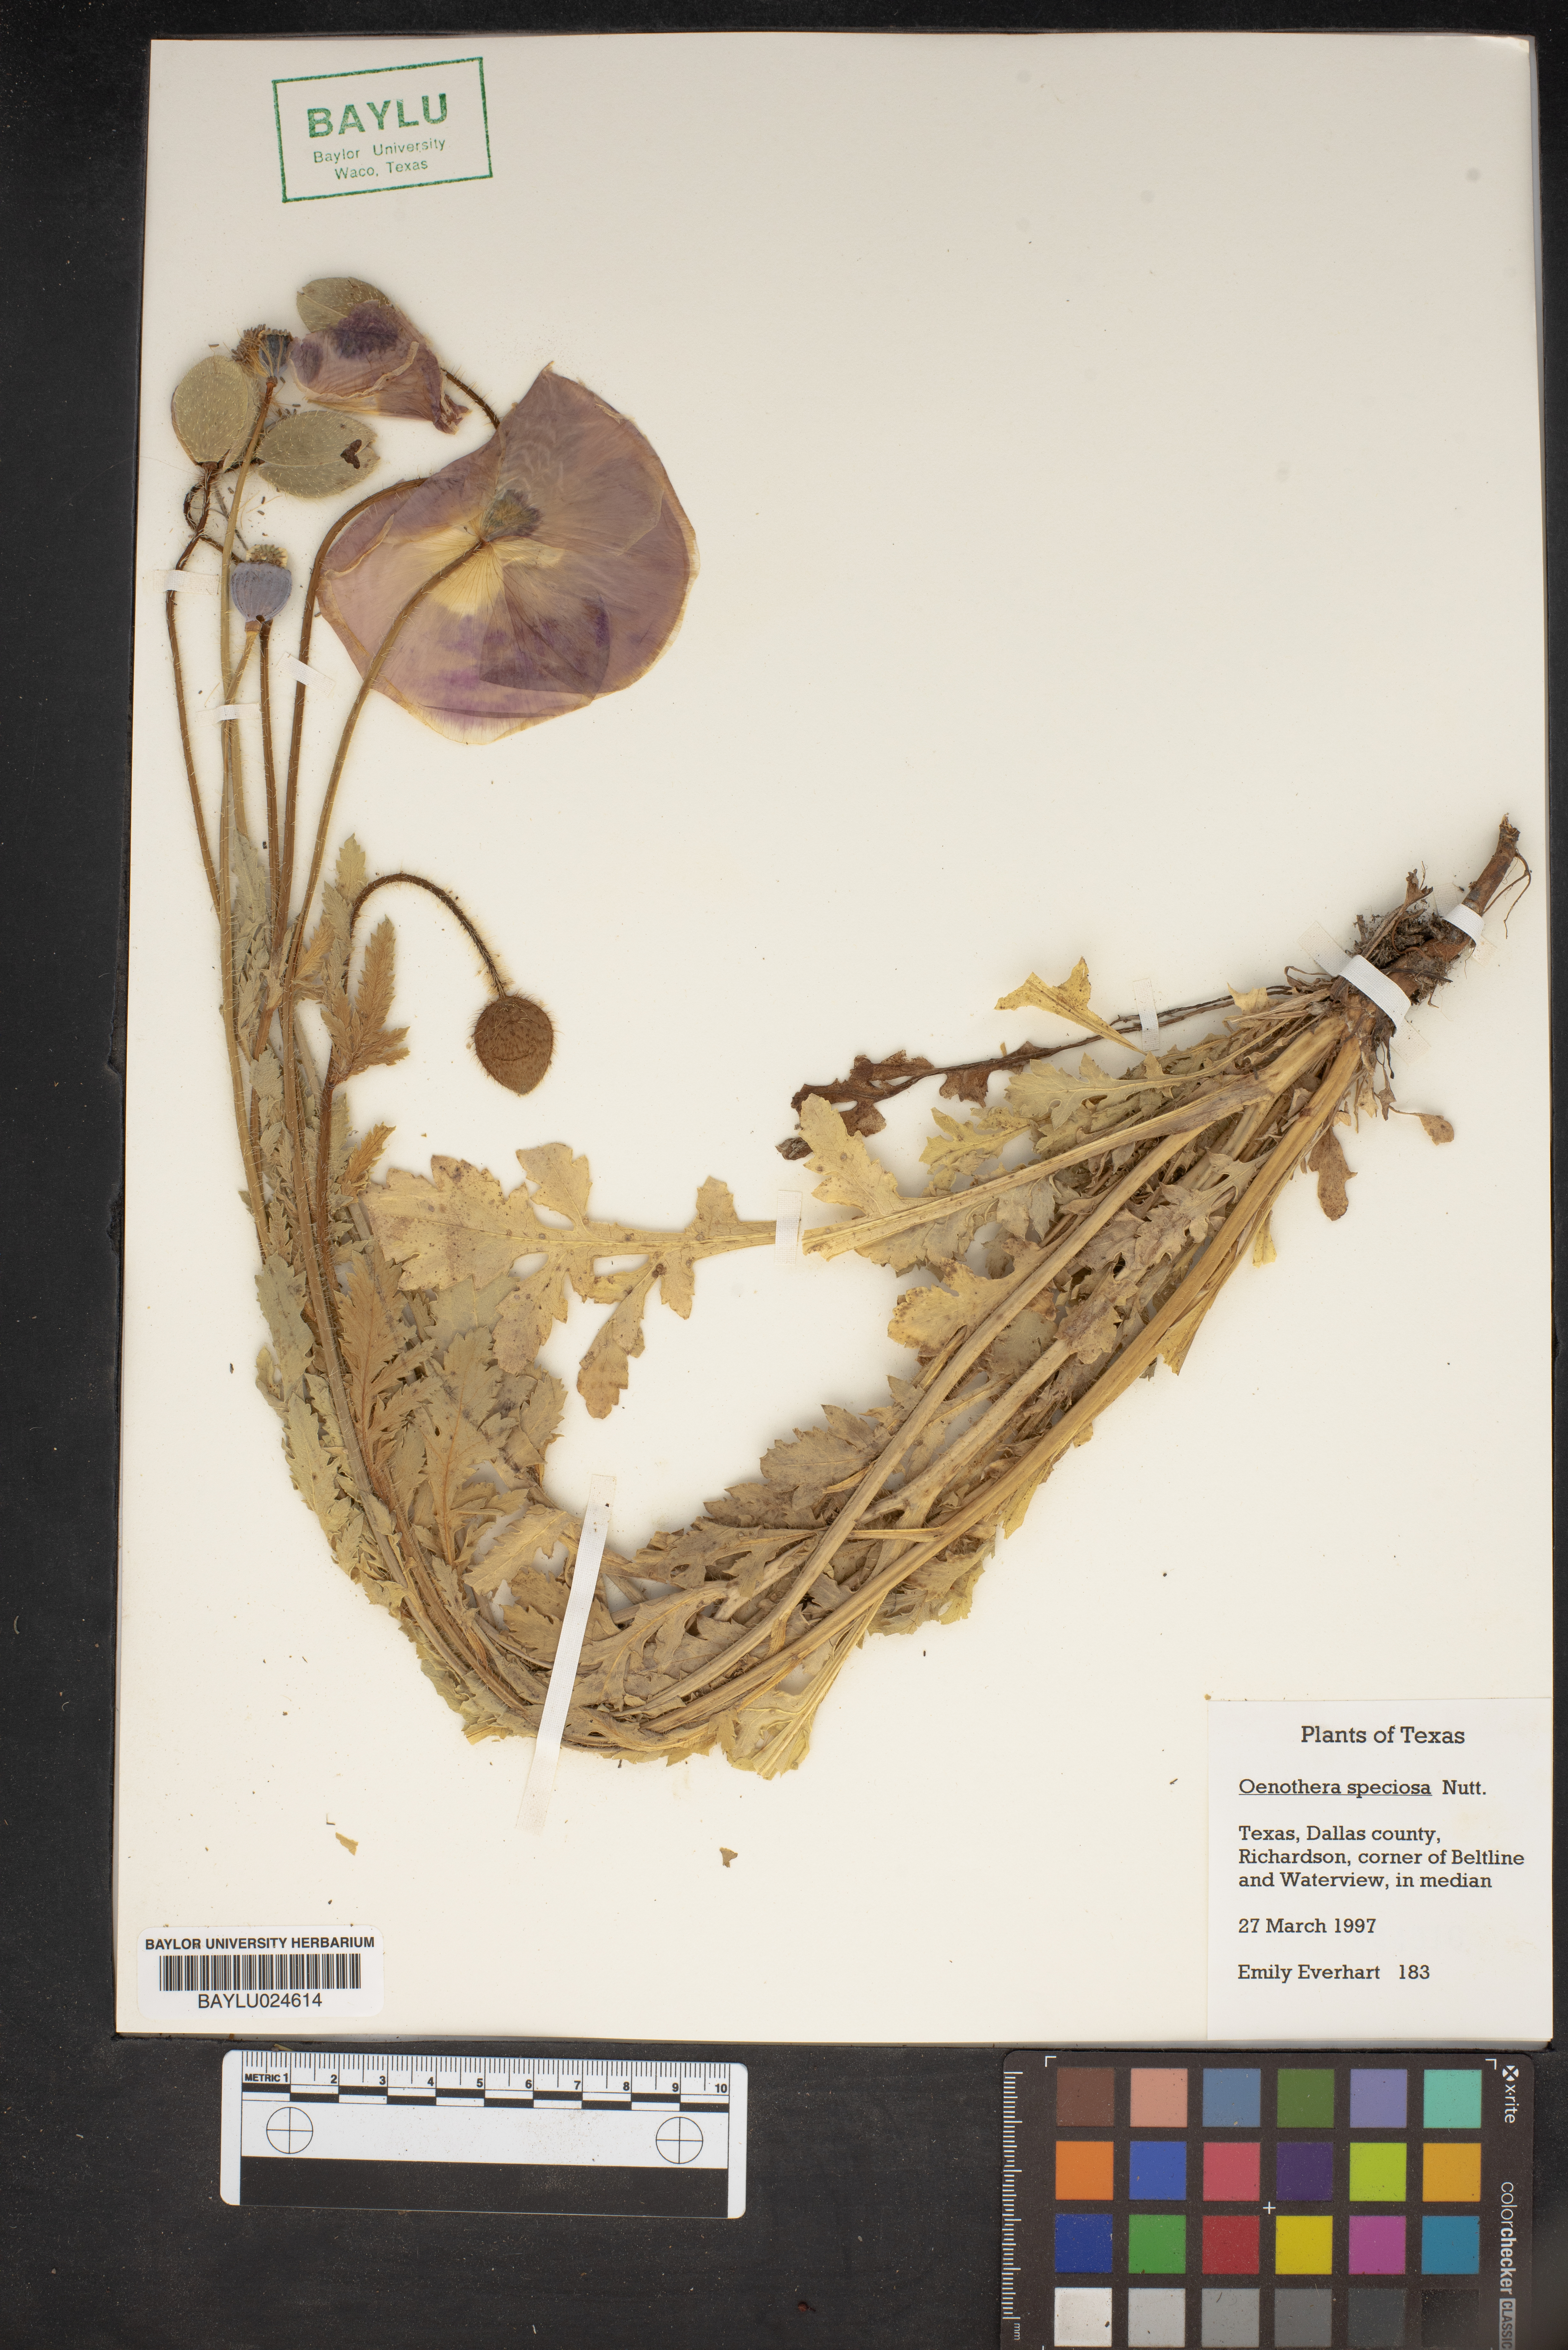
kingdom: Plantae
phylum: Tracheophyta
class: Magnoliopsida
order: Myrtales
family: Onagraceae
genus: Oenothera
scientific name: Oenothera speciosa
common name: White evening-primrose
